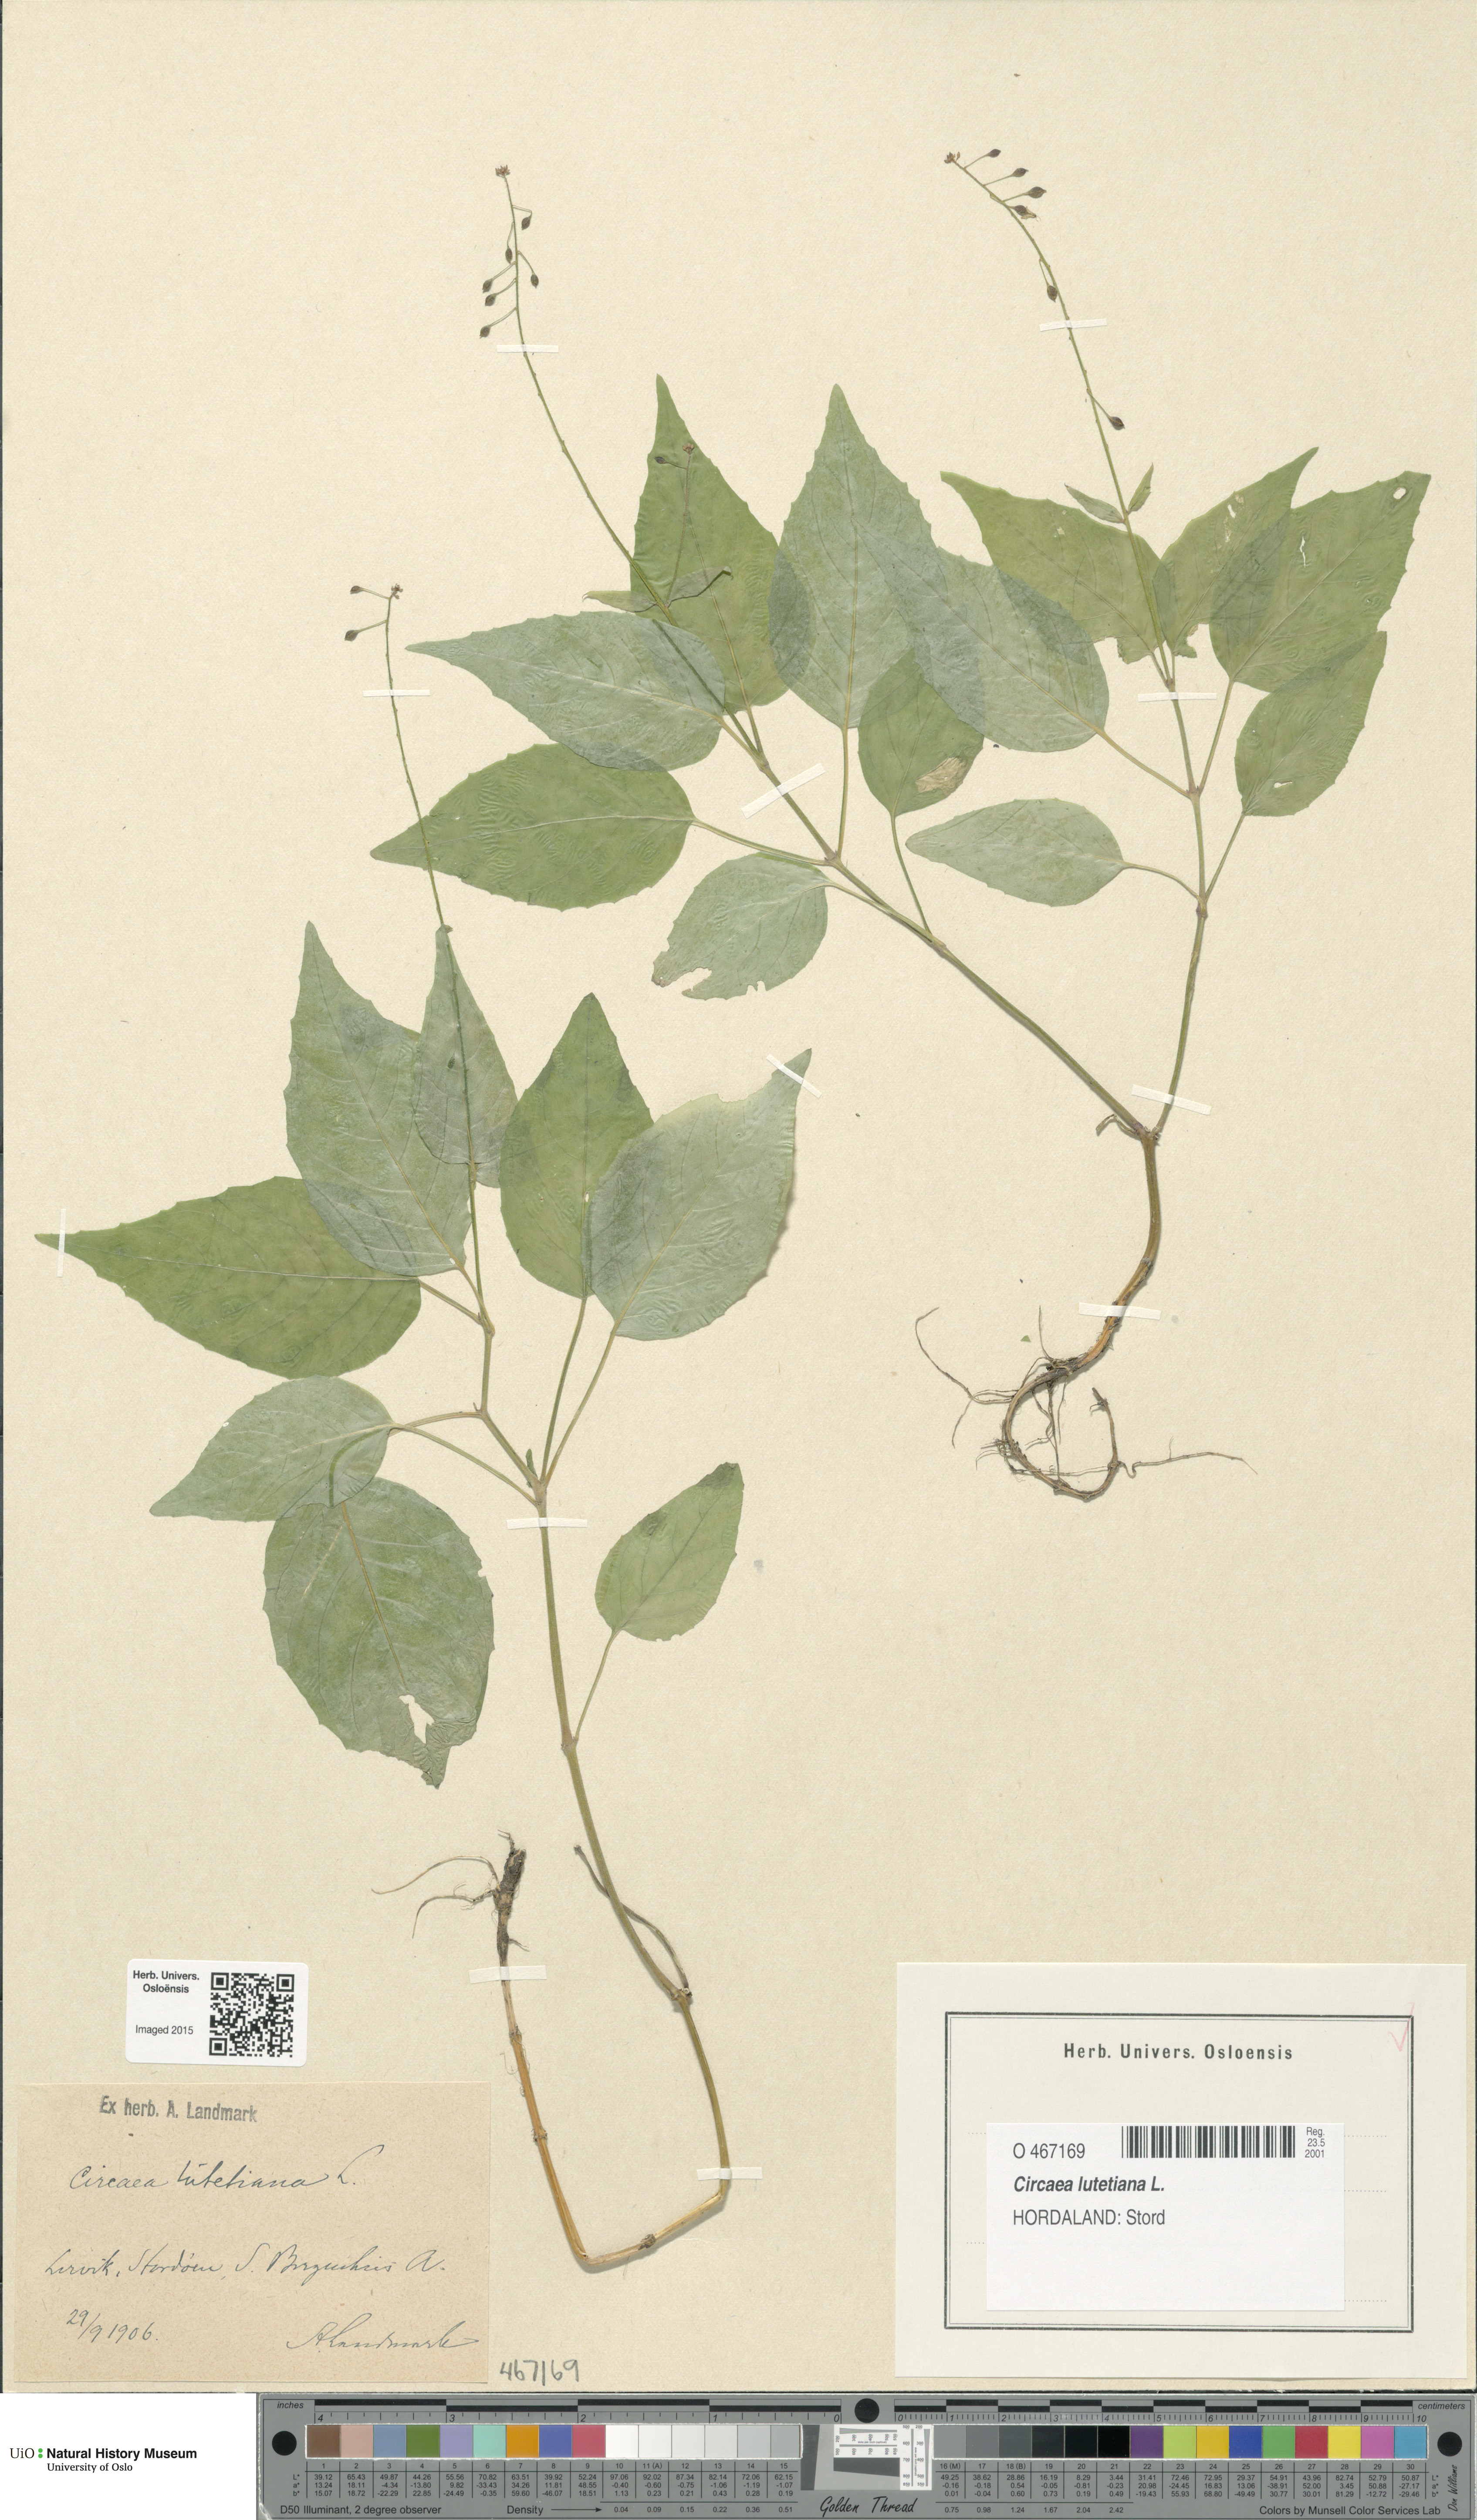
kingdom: Plantae
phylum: Tracheophyta
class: Magnoliopsida
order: Myrtales
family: Onagraceae
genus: Circaea
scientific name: Circaea lutetiana
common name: Enchanter's-nightshade
